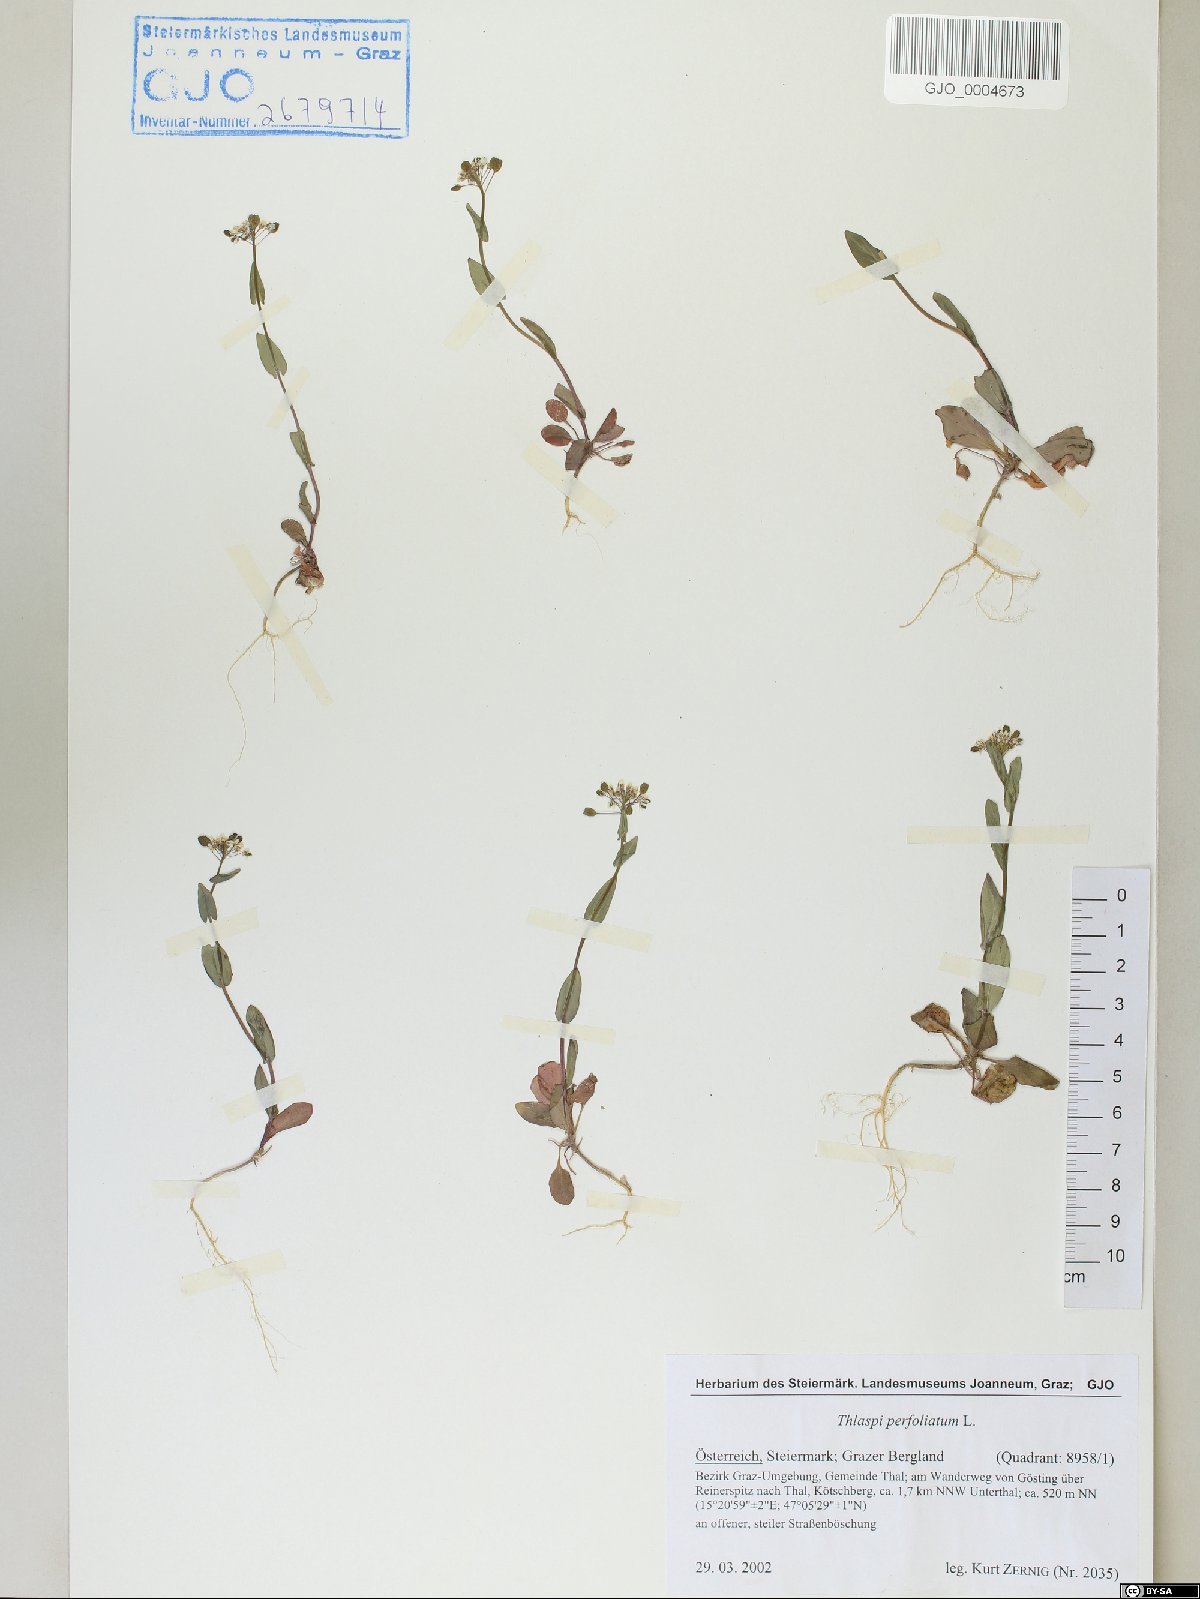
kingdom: Plantae
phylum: Tracheophyta
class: Magnoliopsida
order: Brassicales
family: Brassicaceae
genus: Noccaea
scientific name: Noccaea perfoliata
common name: Perfoliate pennycress
